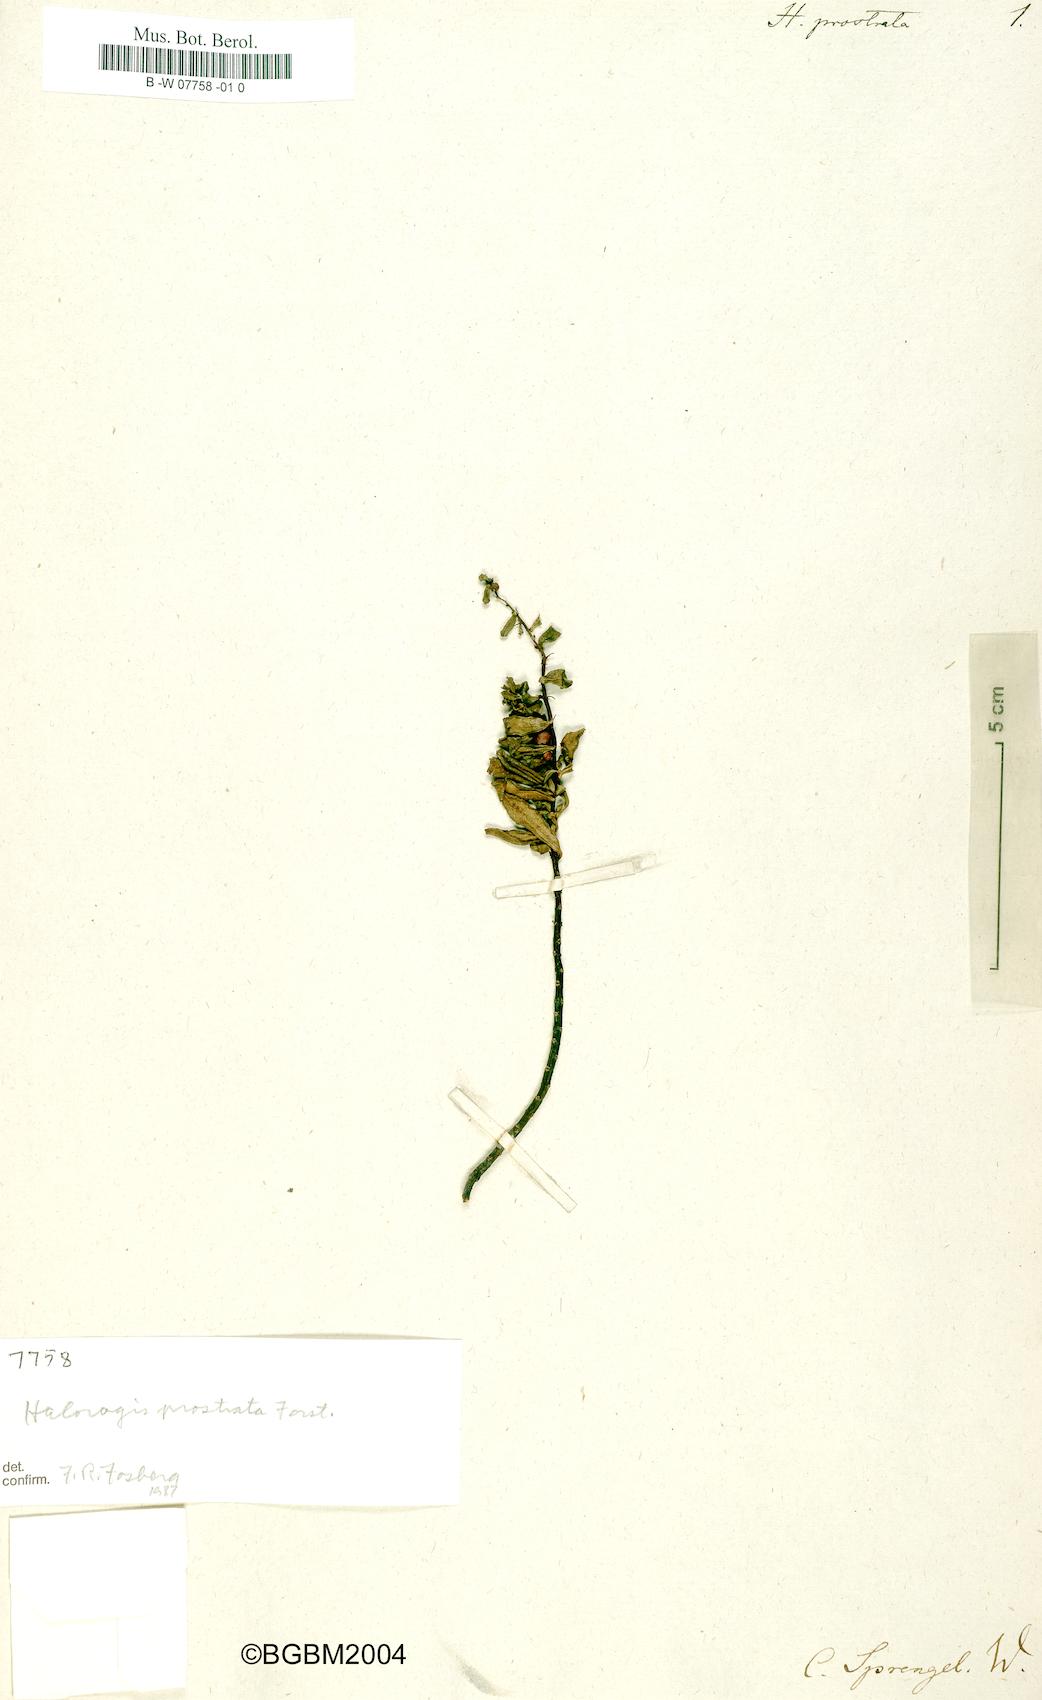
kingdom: Plantae
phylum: Tracheophyta
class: Magnoliopsida
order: Saxifragales
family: Haloragaceae
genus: Haloragis
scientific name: Haloragis prostrata
